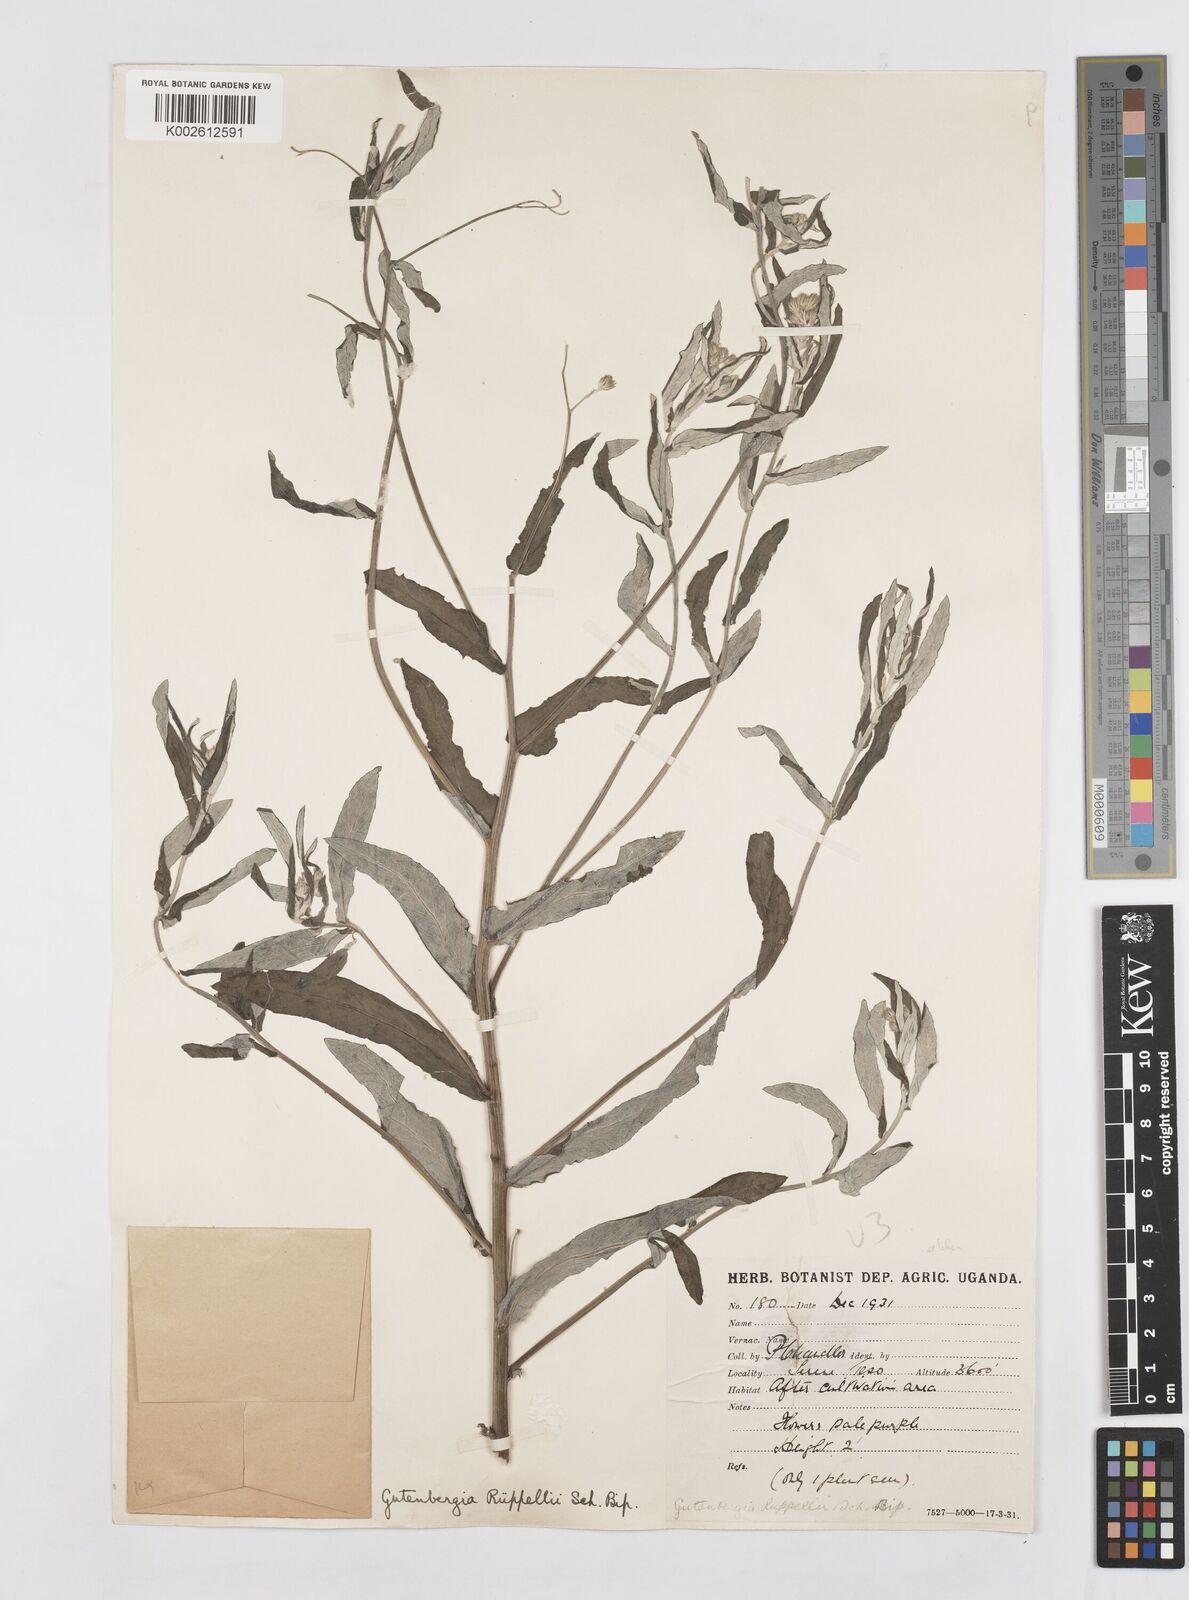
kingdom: Plantae
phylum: Tracheophyta
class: Magnoliopsida
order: Asterales
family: Asteraceae
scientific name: Asteraceae
